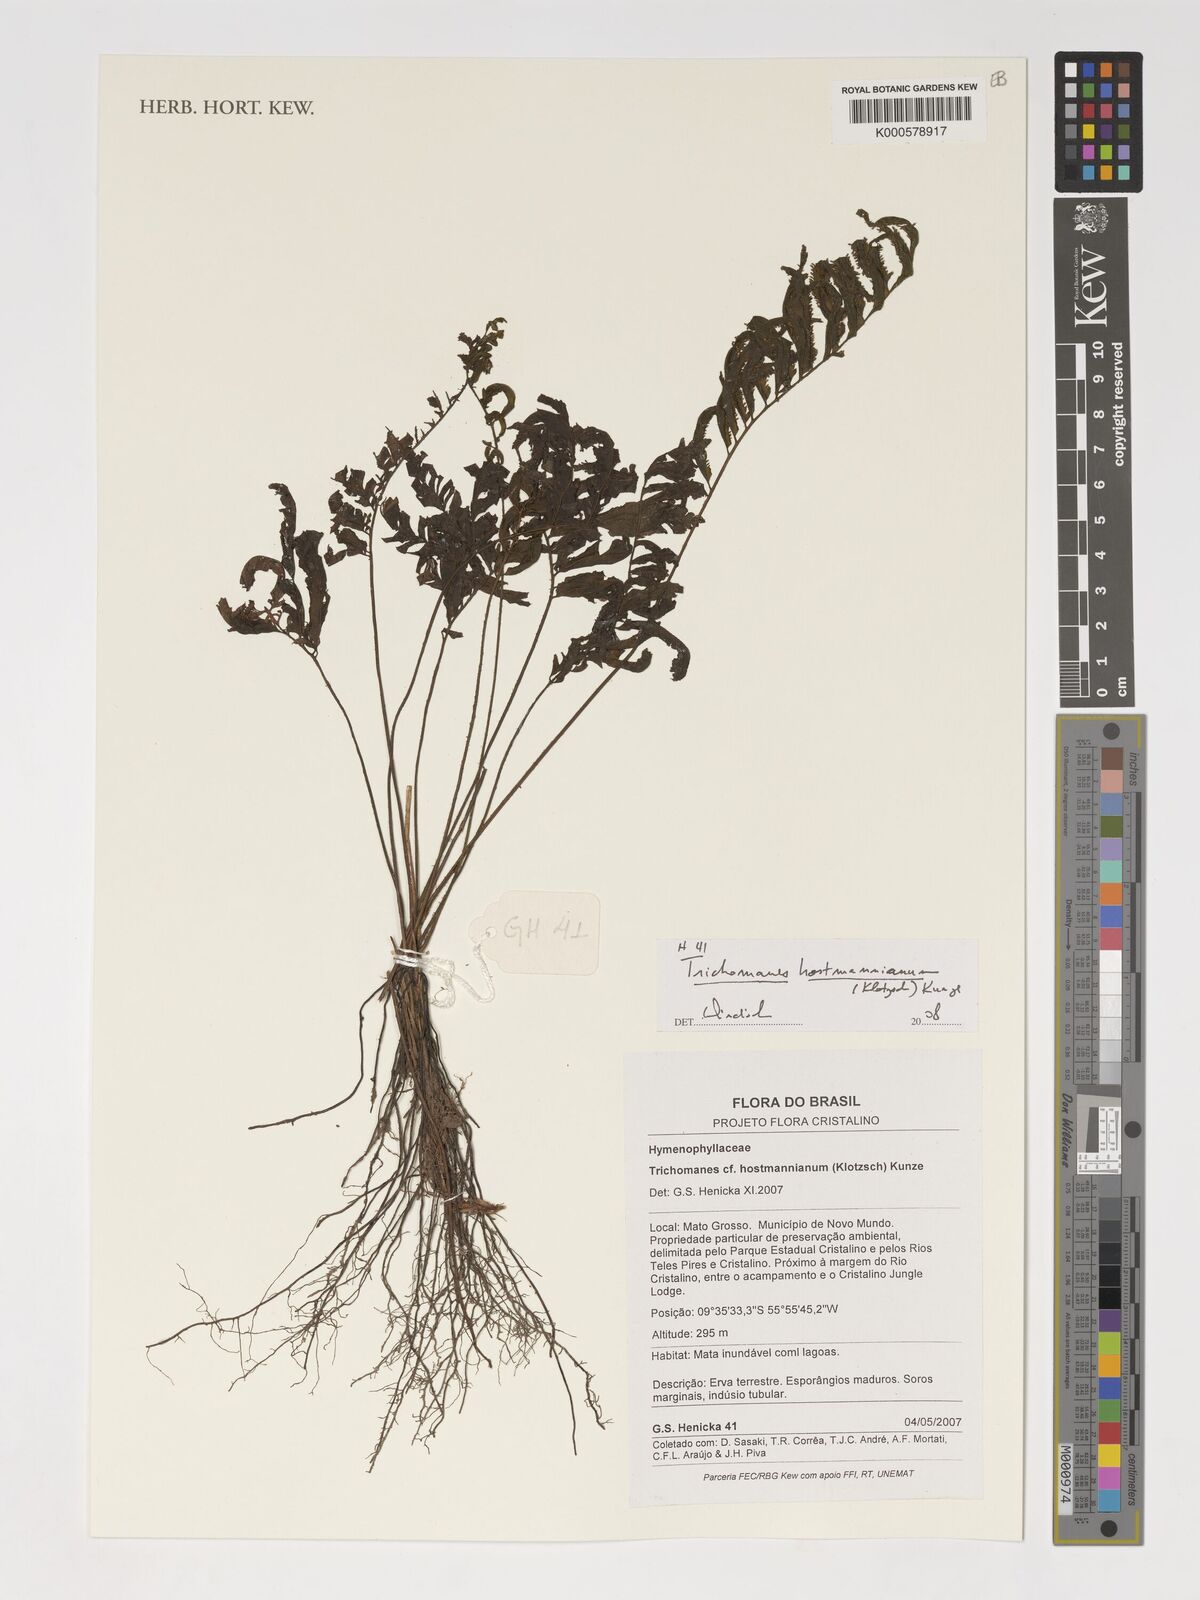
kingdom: Plantae
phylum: Tracheophyta
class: Polypodiopsida
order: Hymenophyllales
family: Hymenophyllaceae
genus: Trichomanes
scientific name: Trichomanes hostmannianum
